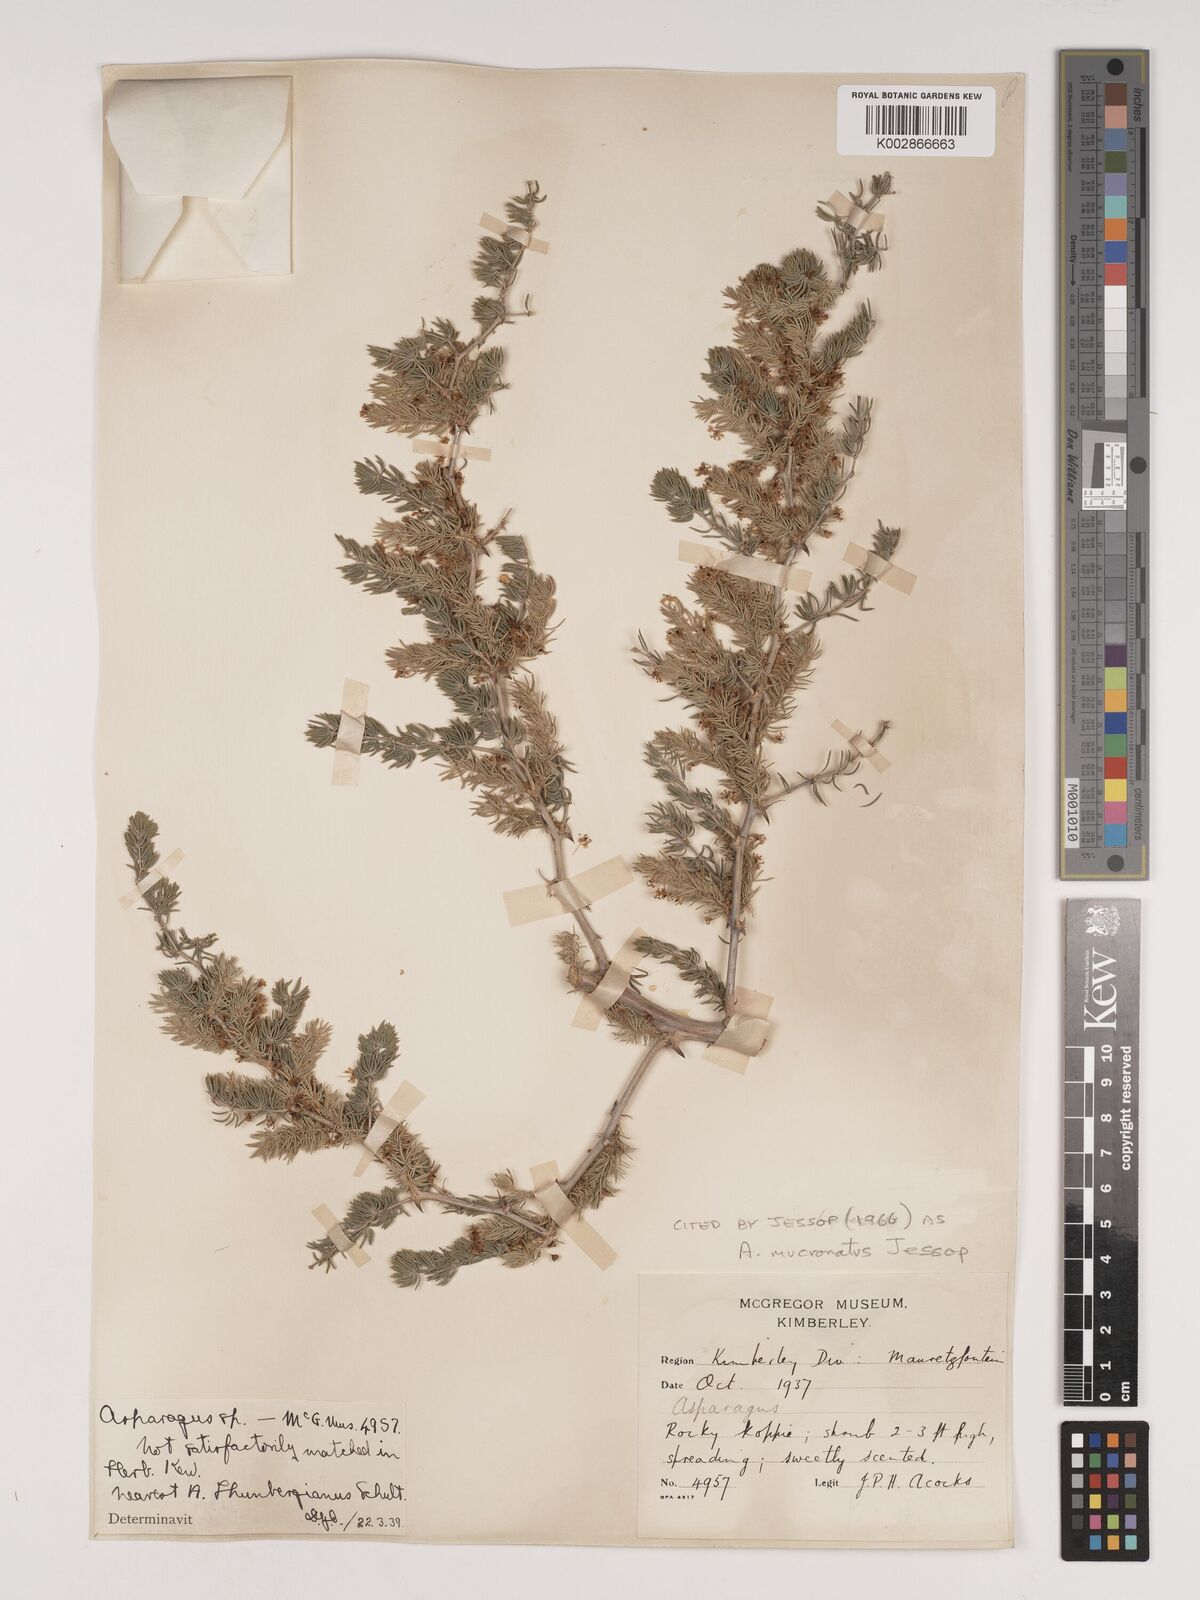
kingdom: Plantae
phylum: Tracheophyta
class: Liliopsida
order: Asparagales
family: Asparagaceae
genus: Asparagus
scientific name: Asparagus mucronatus
